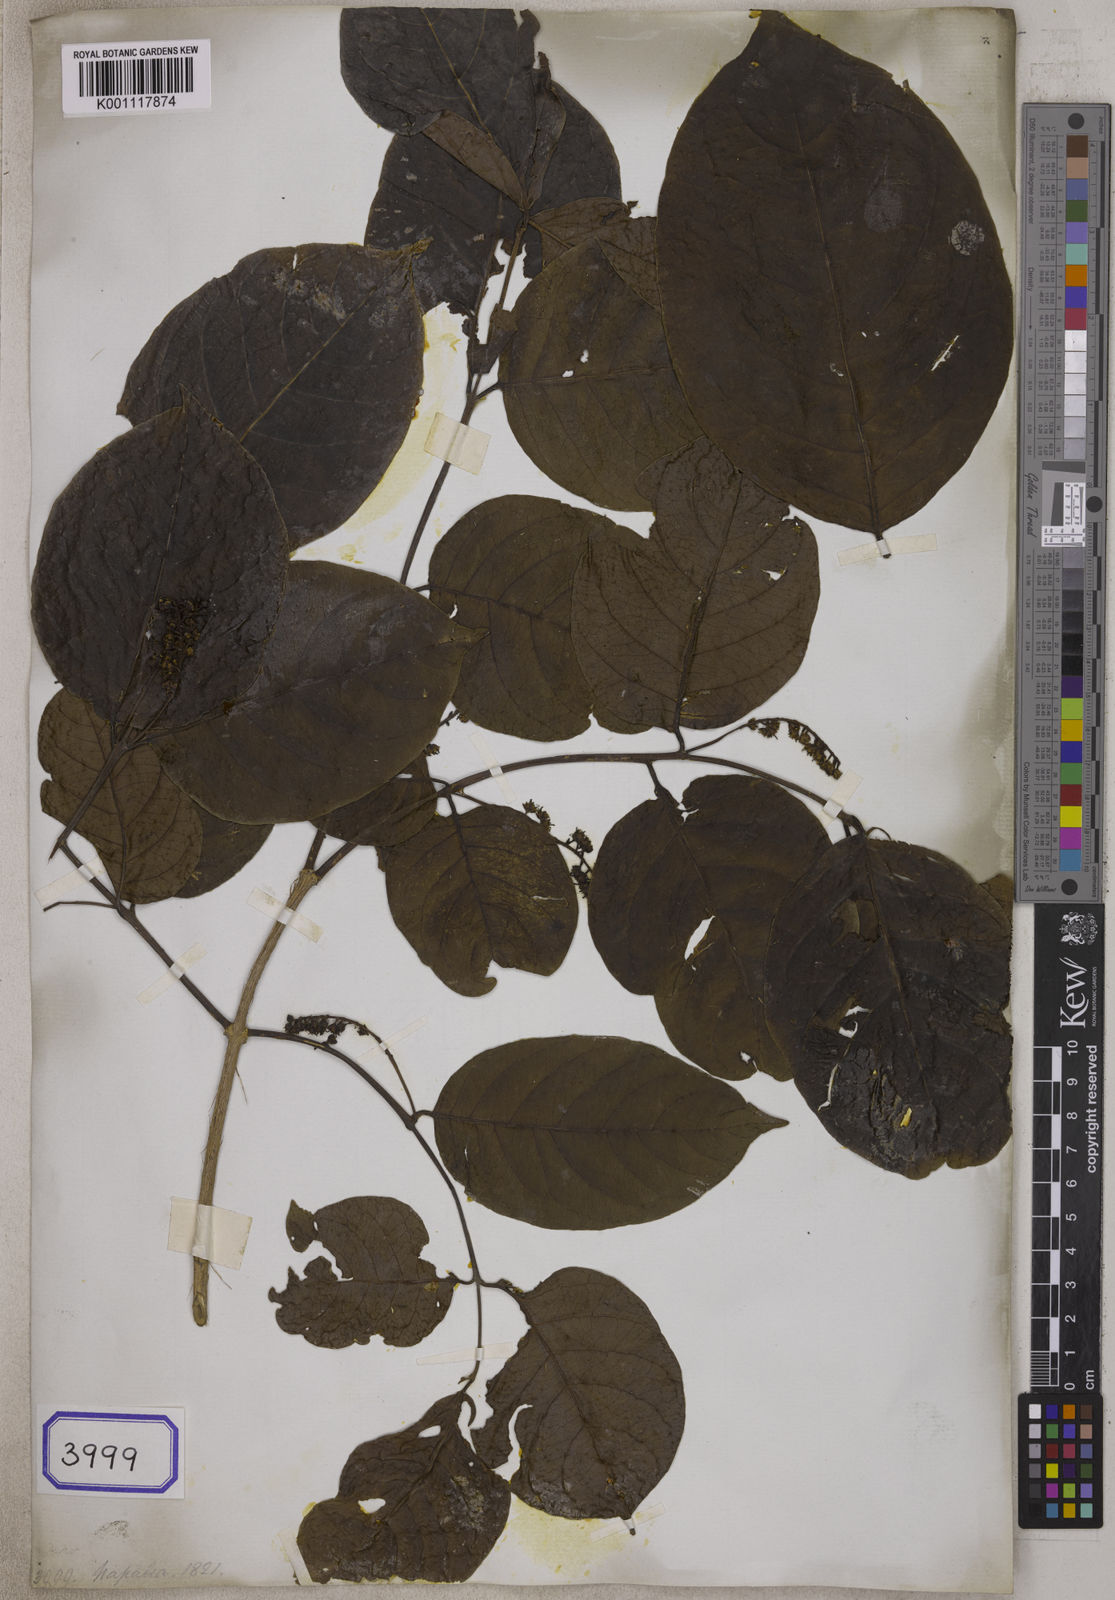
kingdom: Plantae
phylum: Tracheophyta
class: Magnoliopsida
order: Myrtales
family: Combretaceae
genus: Combretum
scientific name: Combretum wallichii
